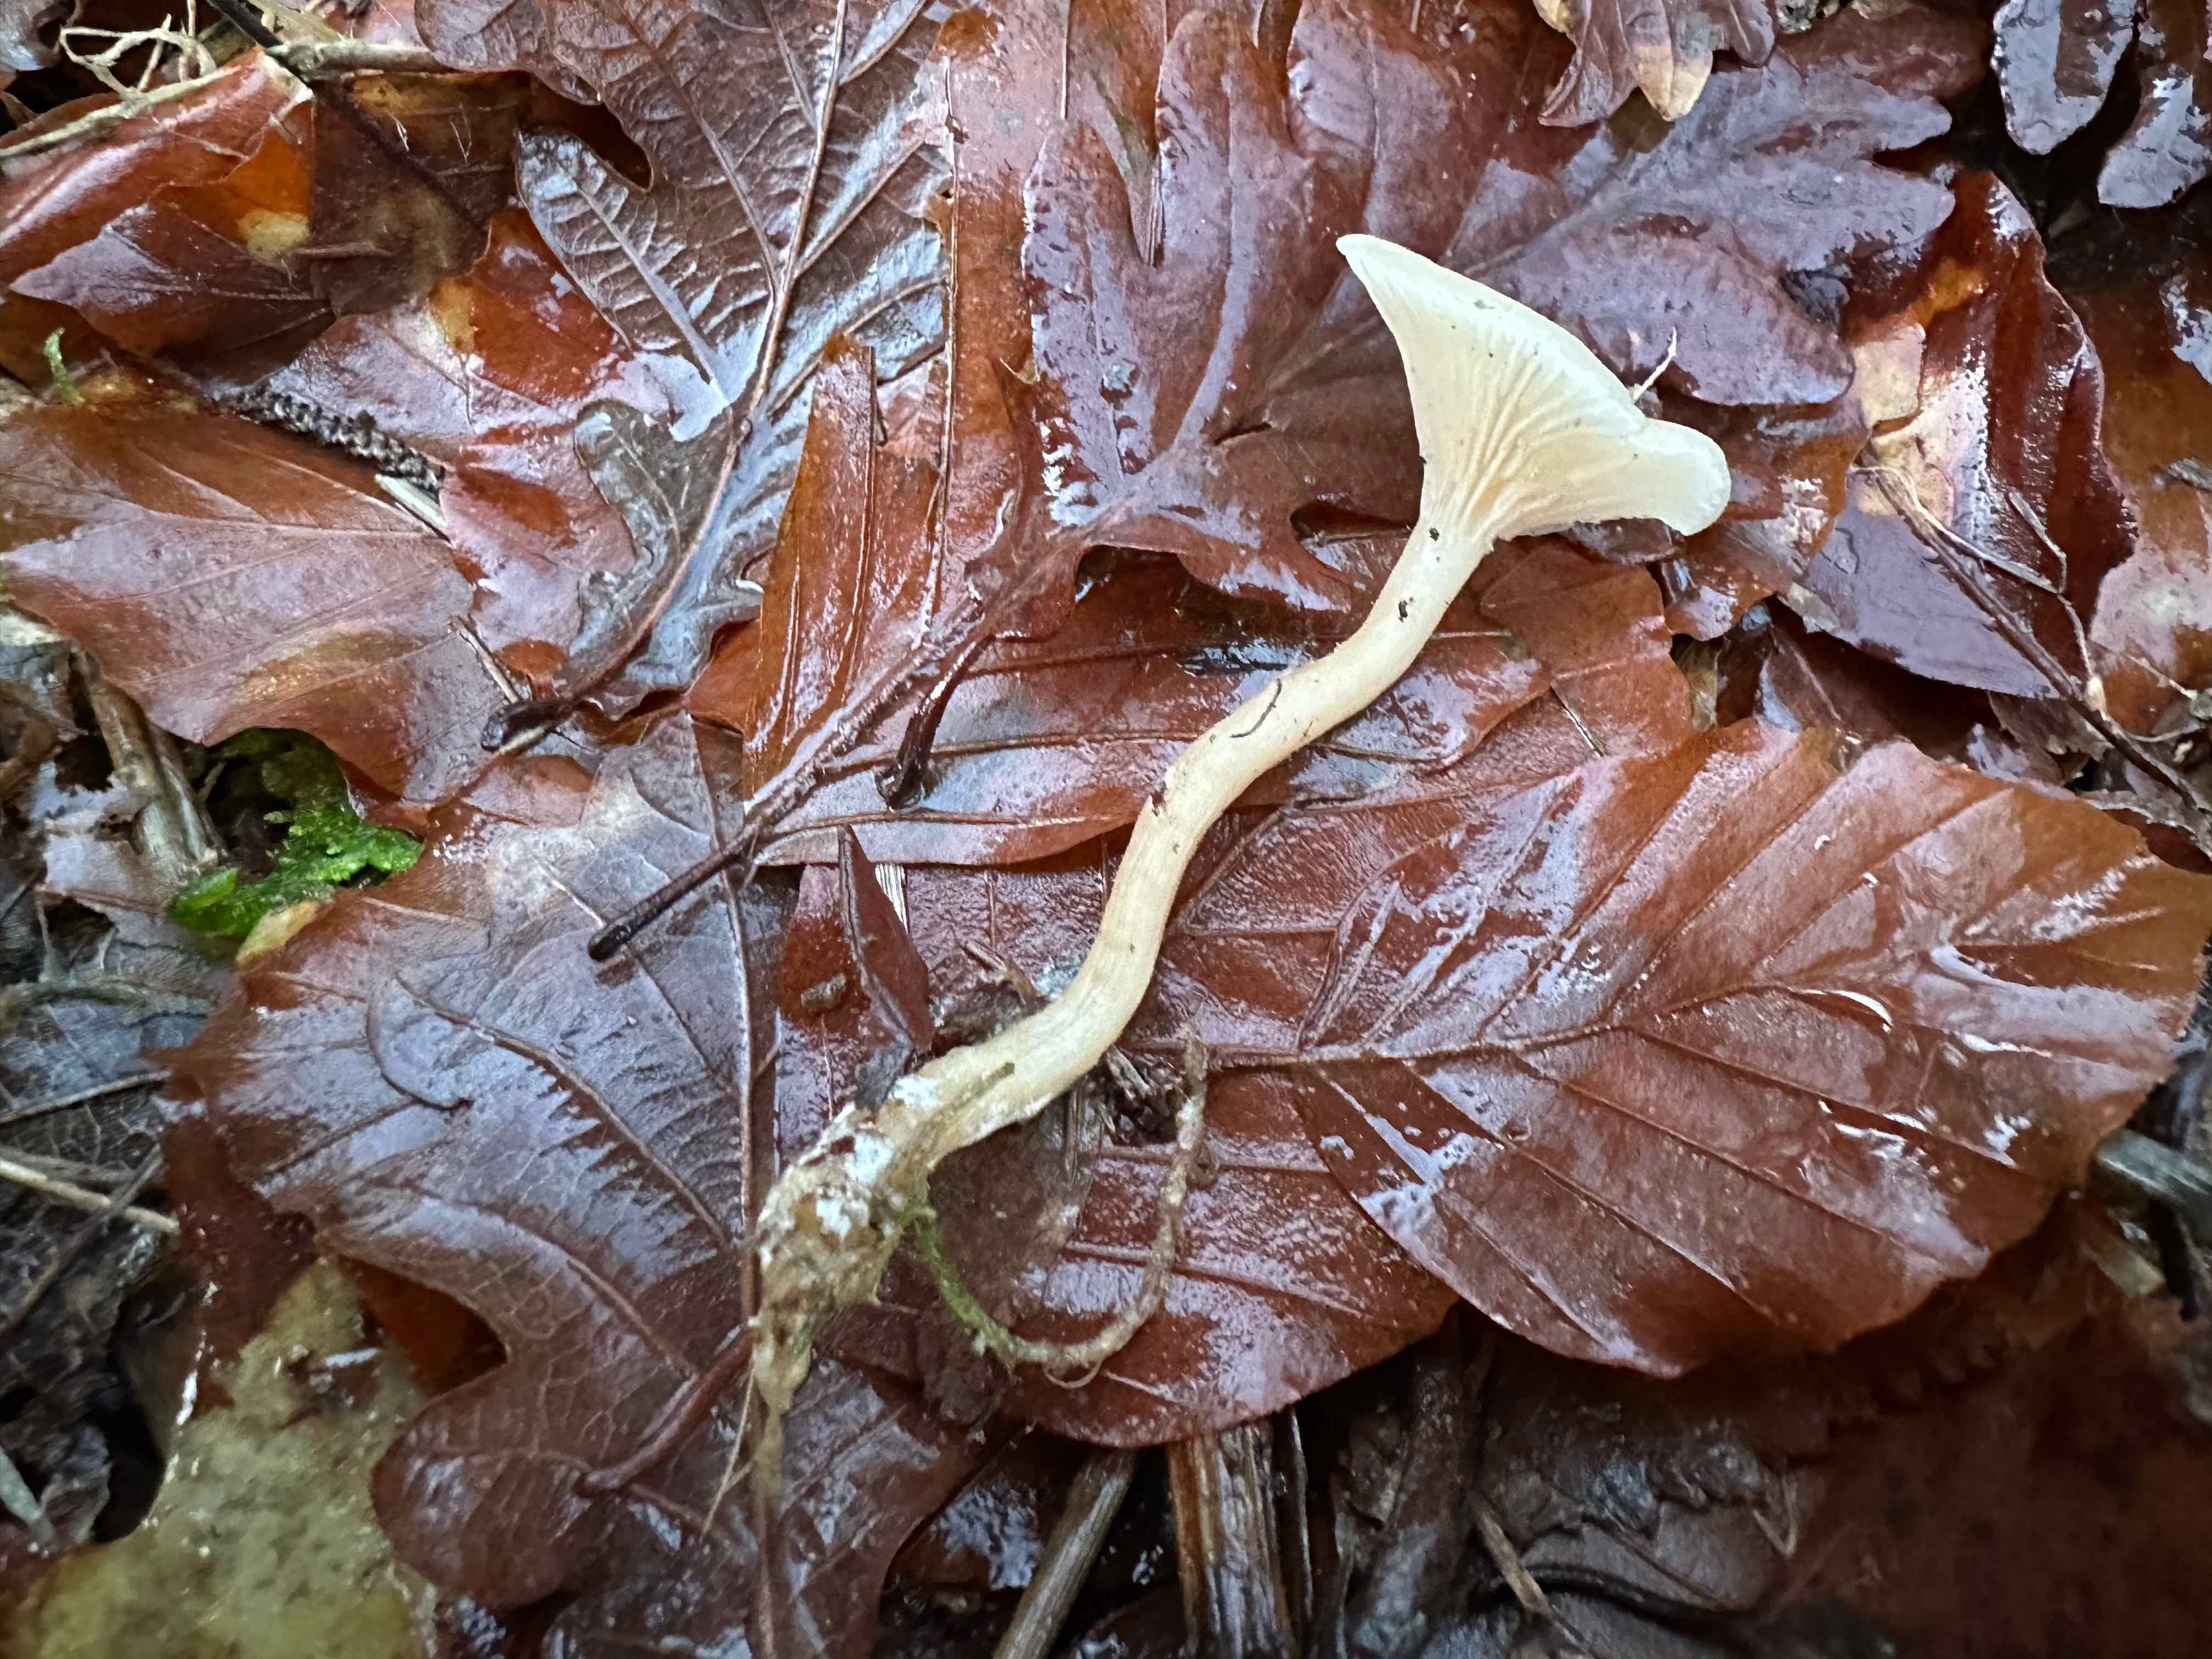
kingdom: Fungi
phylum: Basidiomycota
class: Agaricomycetes
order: Agaricales
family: Tricholomataceae
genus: Clitocybe
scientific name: Clitocybe fragrans
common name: vellugtende tragthat
